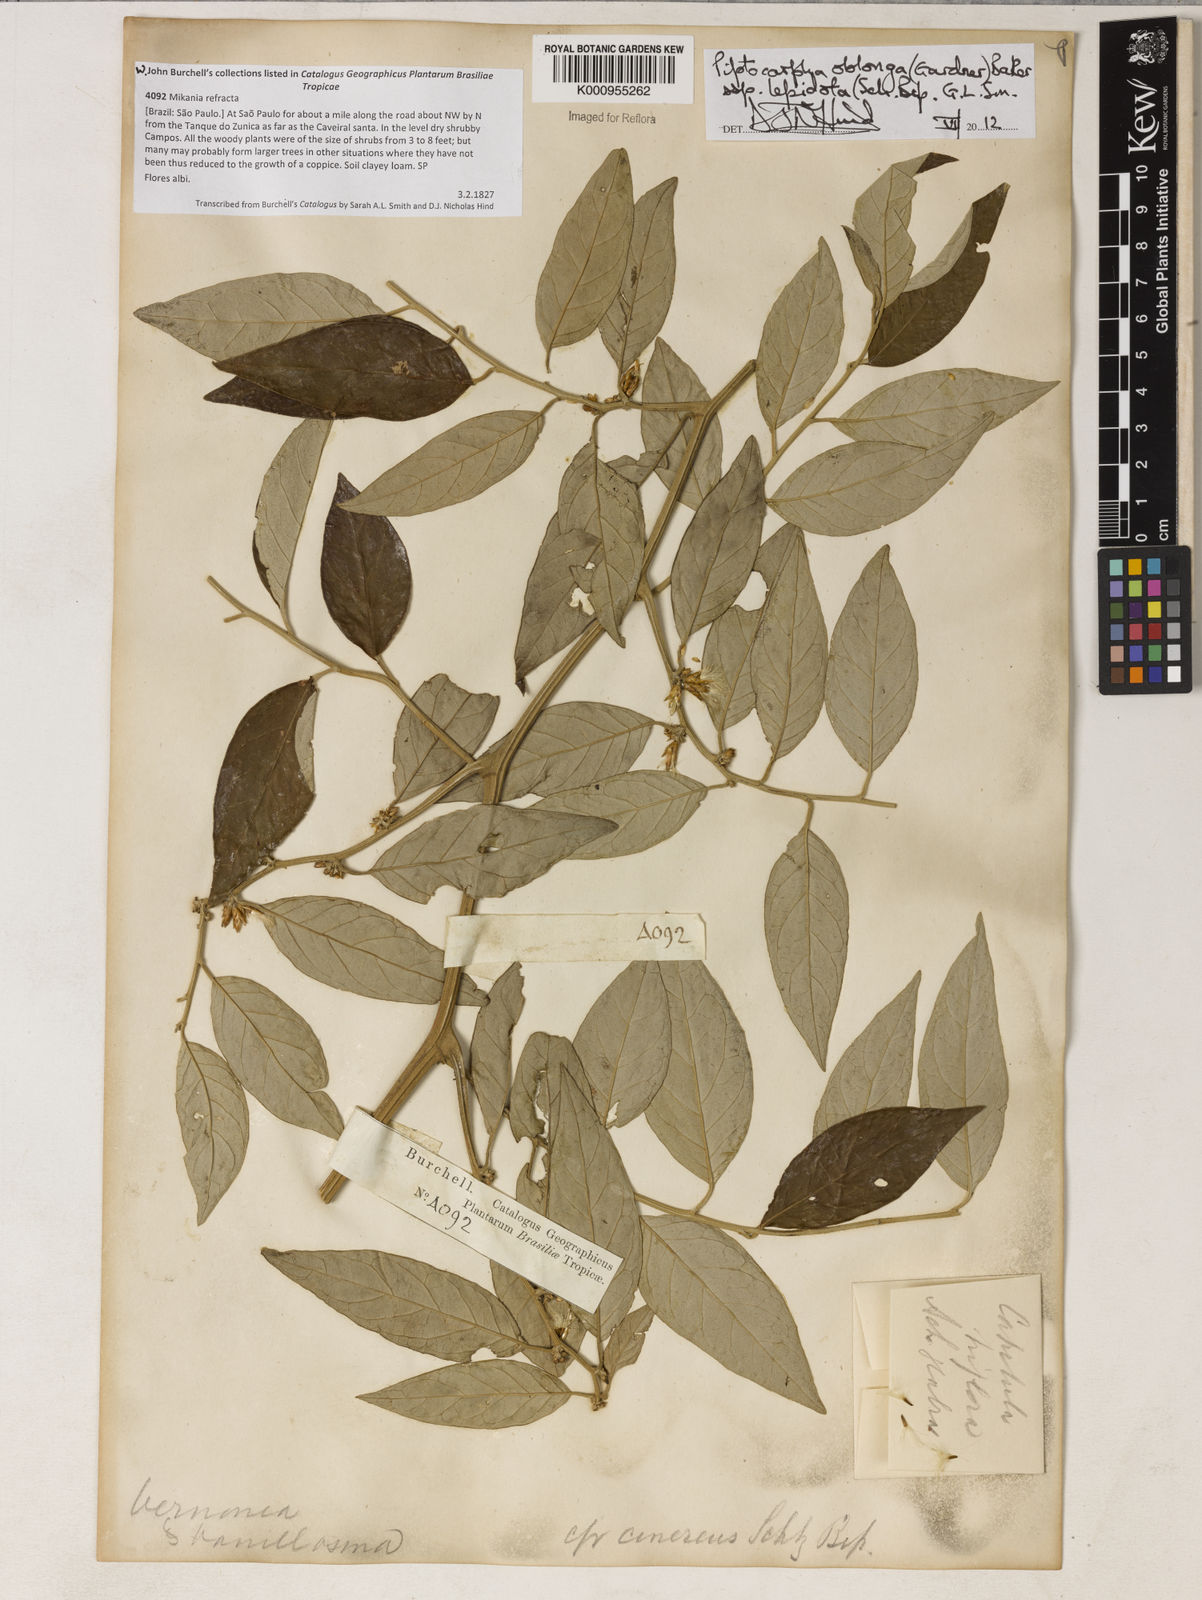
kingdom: Plantae
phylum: Tracheophyta
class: Magnoliopsida
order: Asterales
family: Asteraceae
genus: Piptocarpha
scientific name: Piptocarpha oblonga
